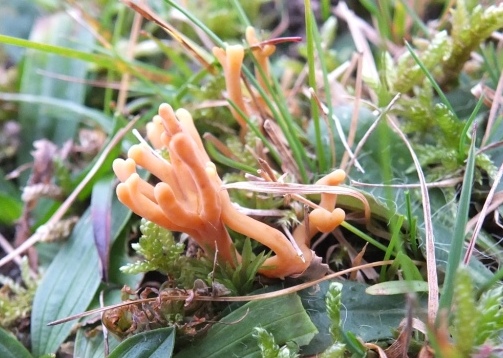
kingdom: Fungi
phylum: Basidiomycota
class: Agaricomycetes
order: Agaricales
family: Clavariaceae
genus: Clavulinopsis
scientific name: Clavulinopsis corniculata
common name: eng-køllesvamp
